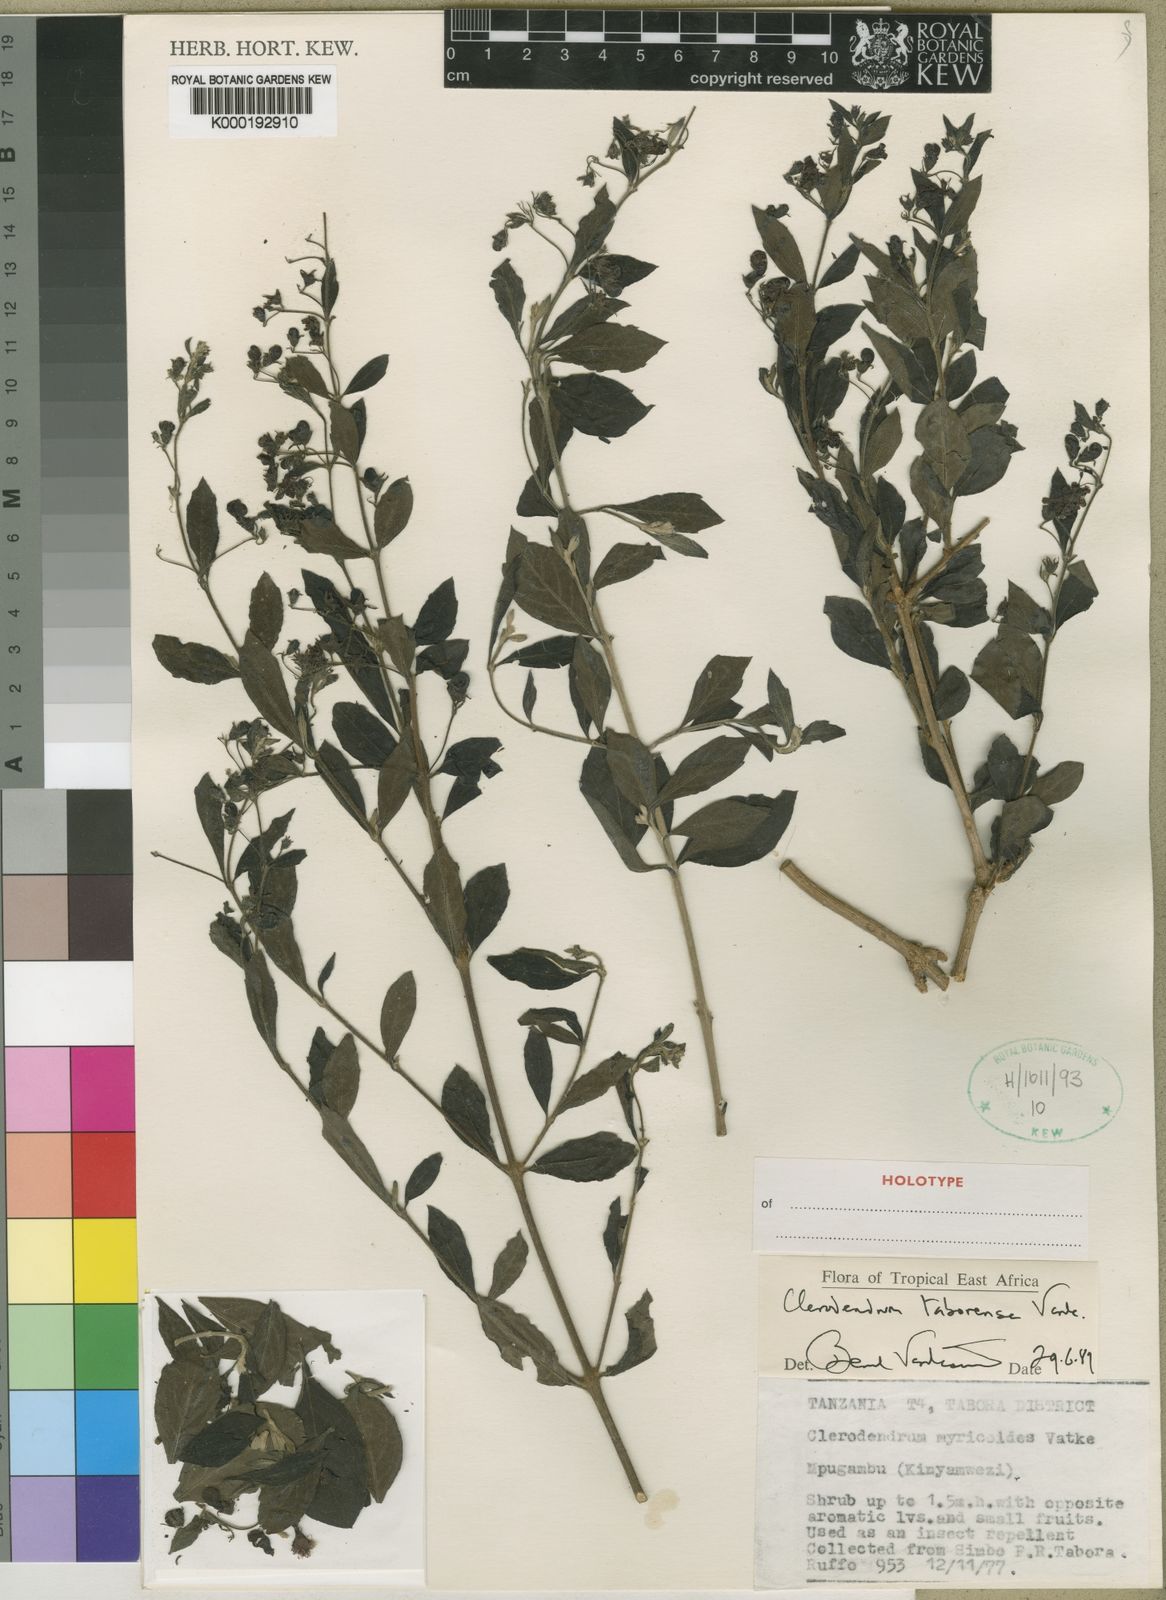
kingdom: Plantae
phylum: Tracheophyta
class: Magnoliopsida
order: Lamiales
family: Lamiaceae
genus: Rotheca
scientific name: Rotheca taborensis
